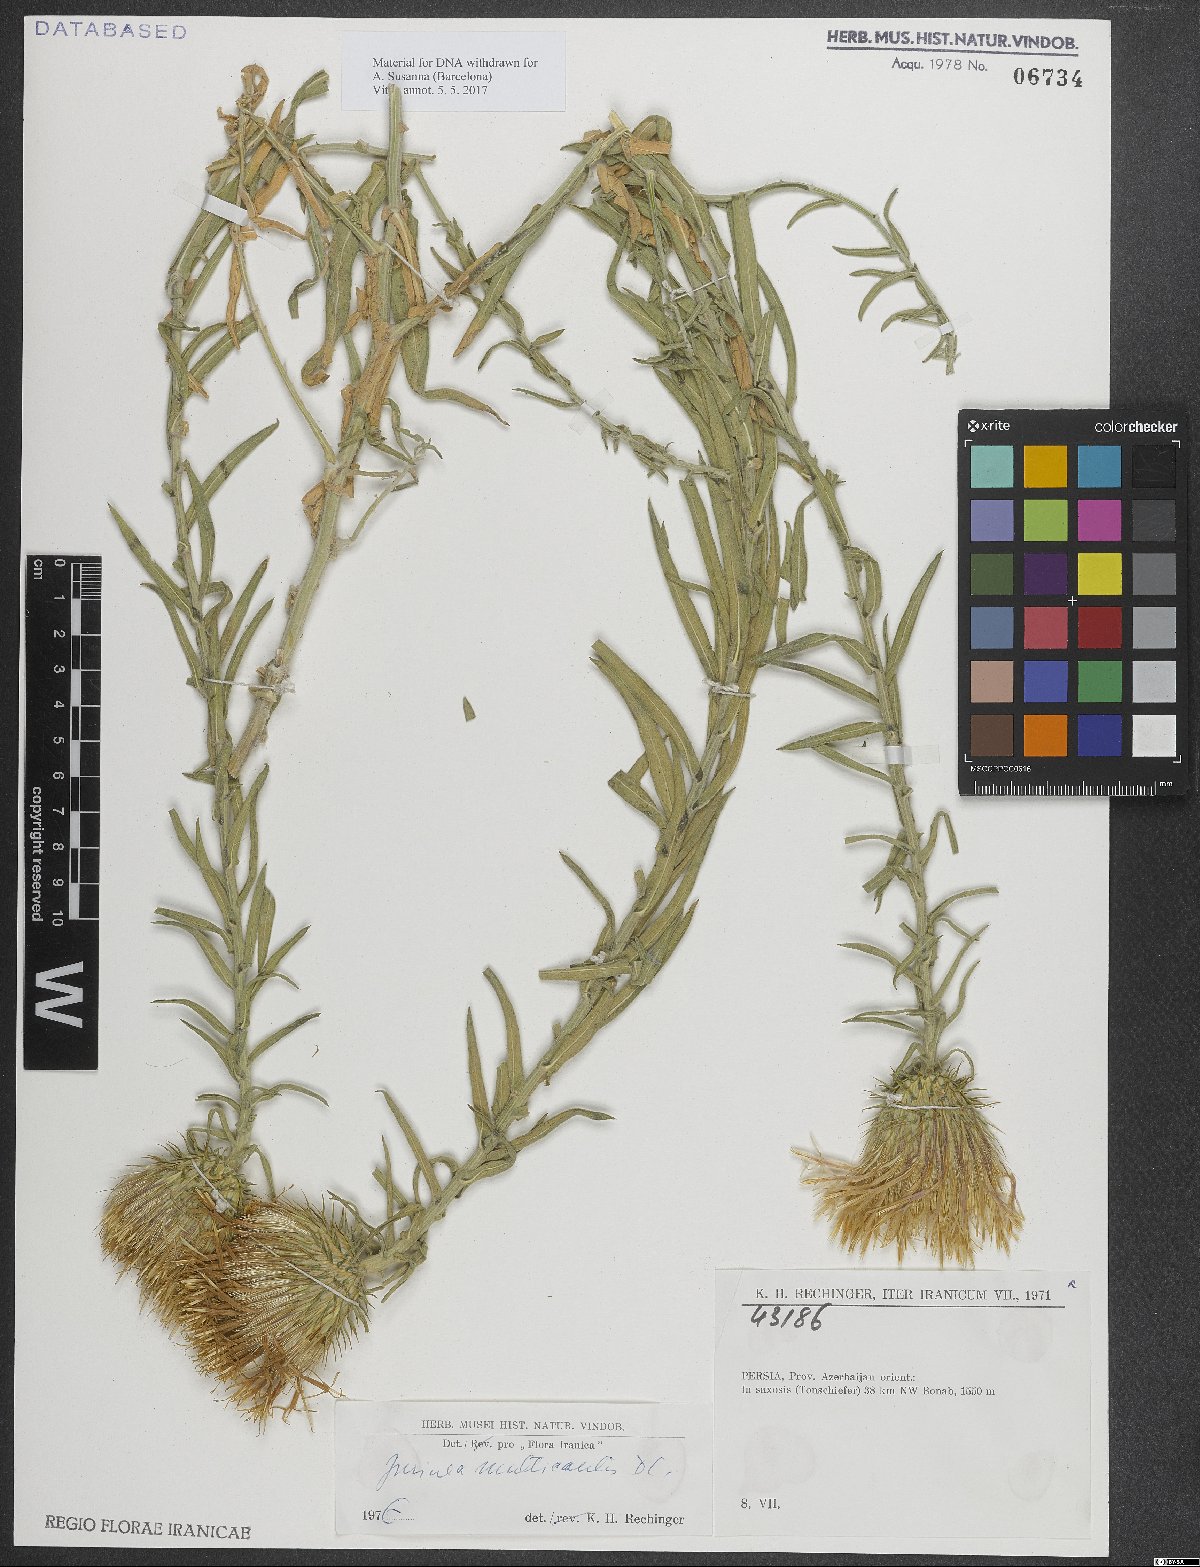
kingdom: Plantae
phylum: Tracheophyta
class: Magnoliopsida
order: Asterales
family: Asteraceae
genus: Jurinea
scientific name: Jurinea multicaulis
